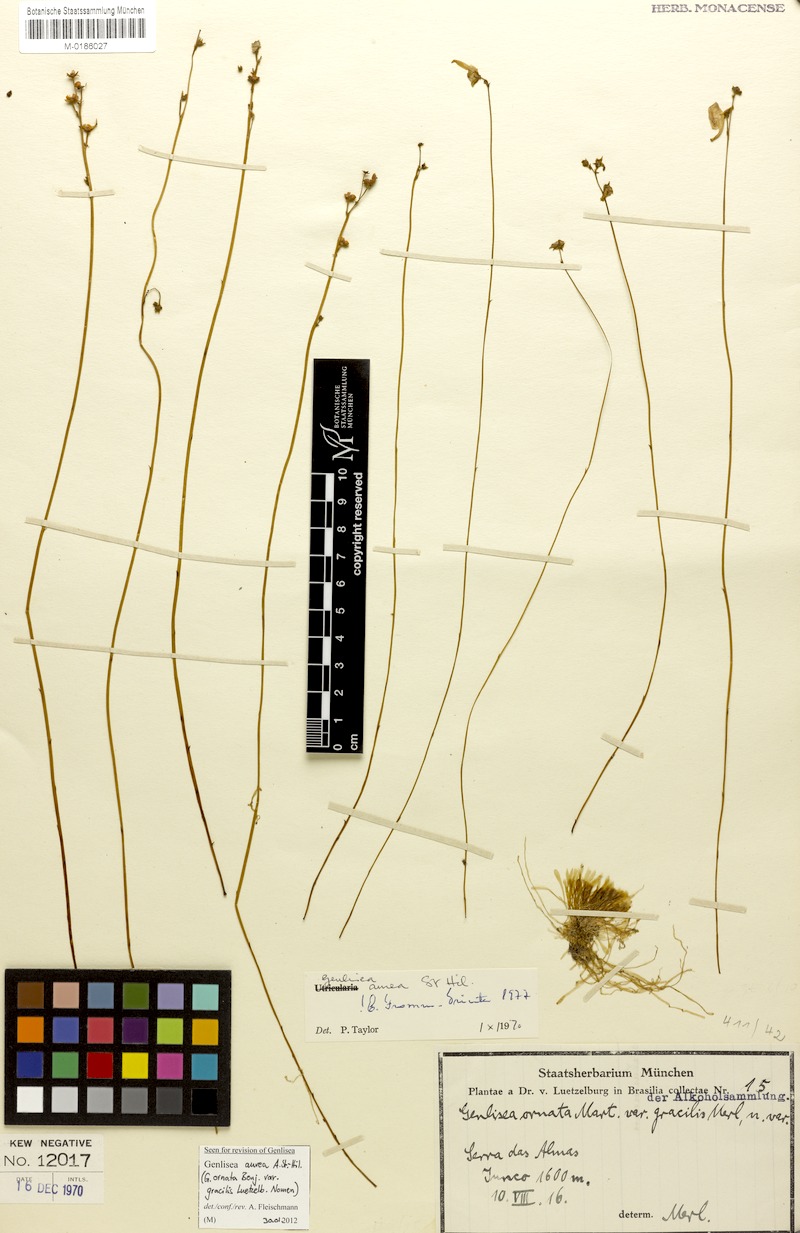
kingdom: Plantae
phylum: Tracheophyta
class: Magnoliopsida
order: Lamiales
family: Lentibulariaceae
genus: Genlisea
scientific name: Genlisea aurea
